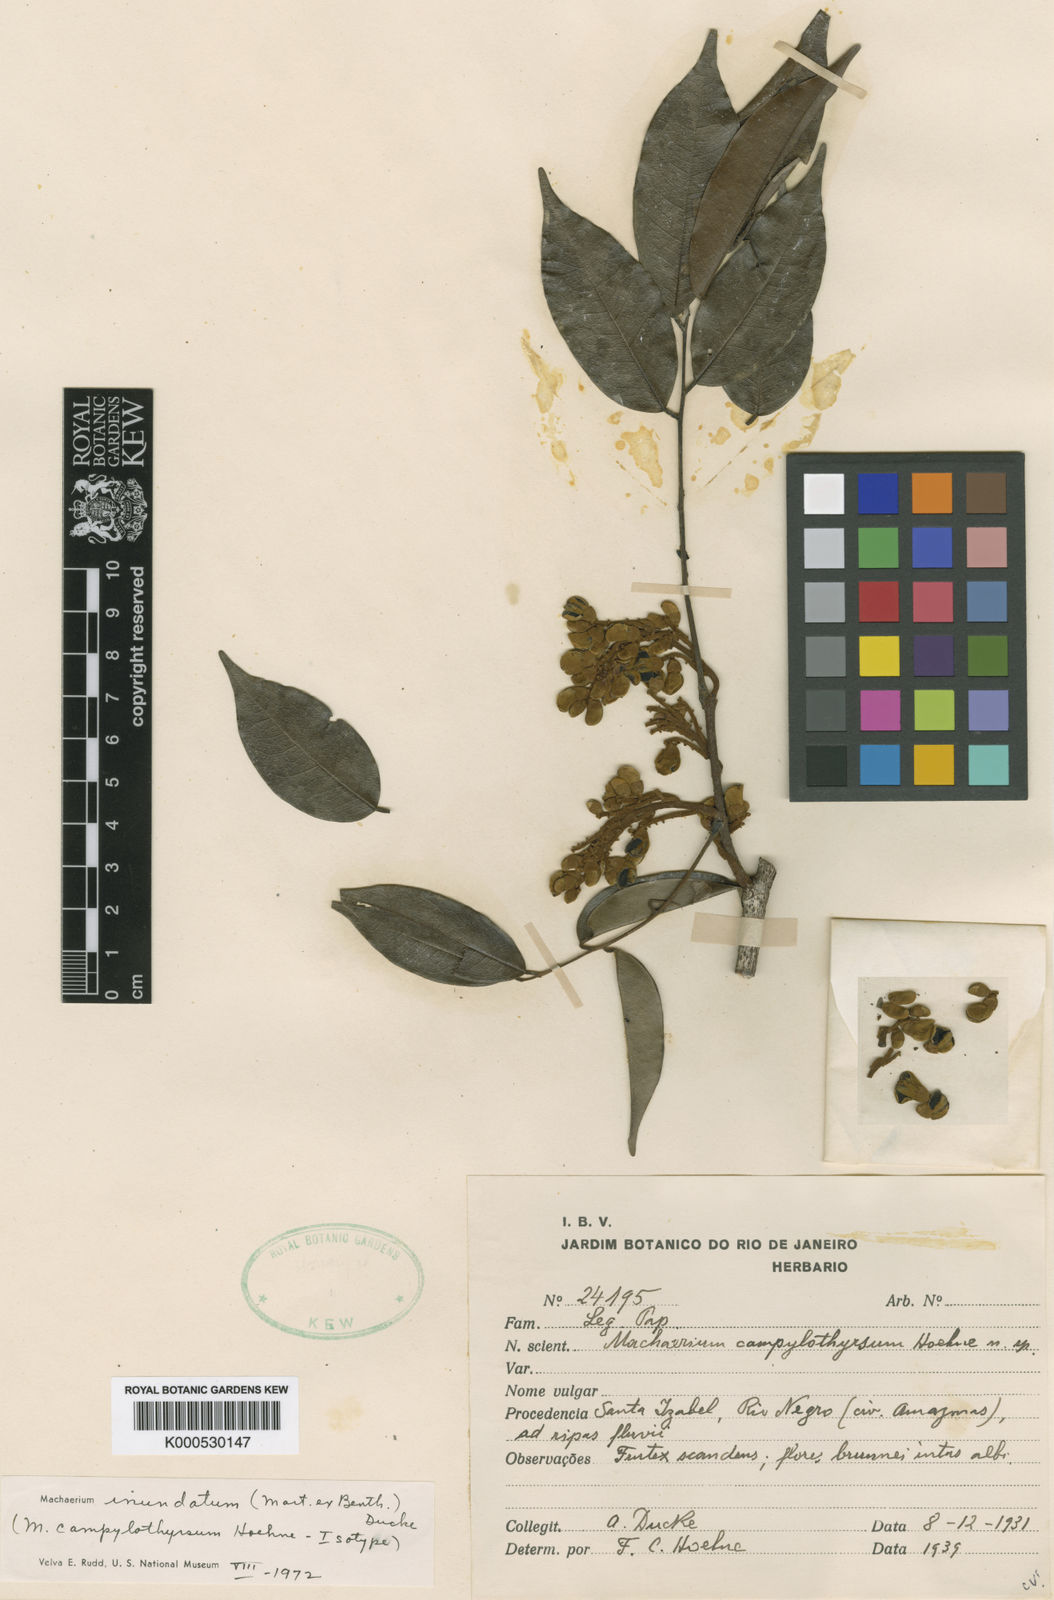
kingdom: Plantae
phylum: Tracheophyta
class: Magnoliopsida
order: Fabales
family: Fabaceae
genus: Machaerium
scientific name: Machaerium inundatum
